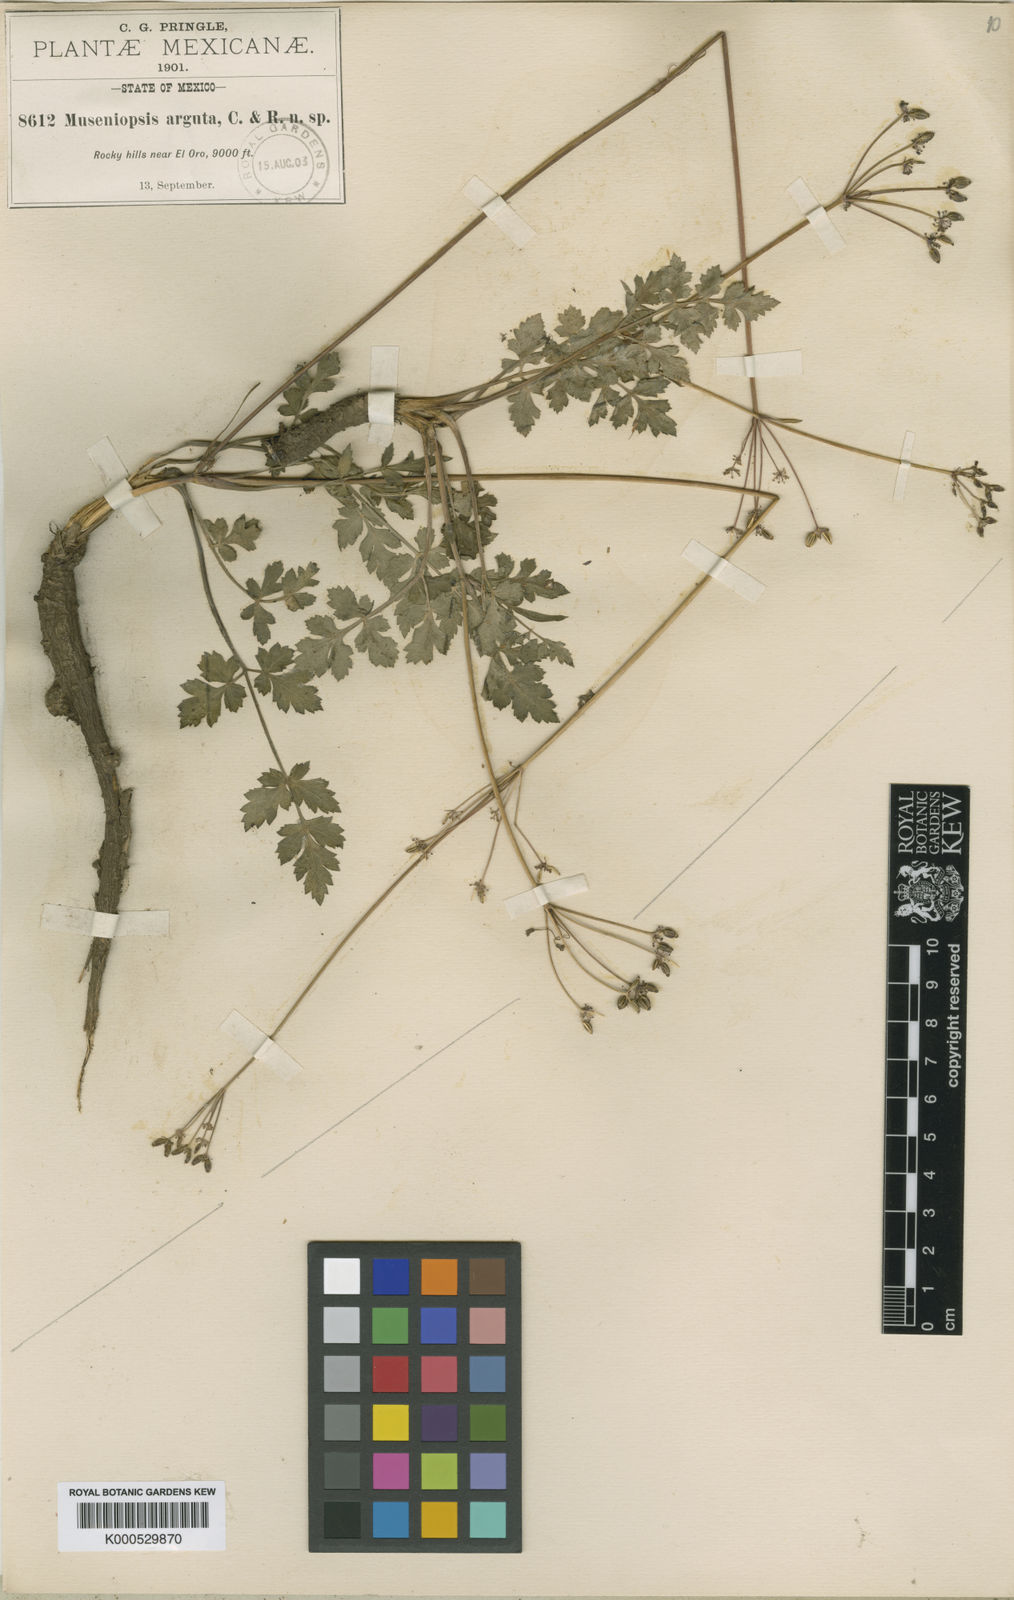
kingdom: Plantae
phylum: Tracheophyta
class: Magnoliopsida
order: Apiales
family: Apiaceae
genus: Tauschia
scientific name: Tauschia drudeophytoides
